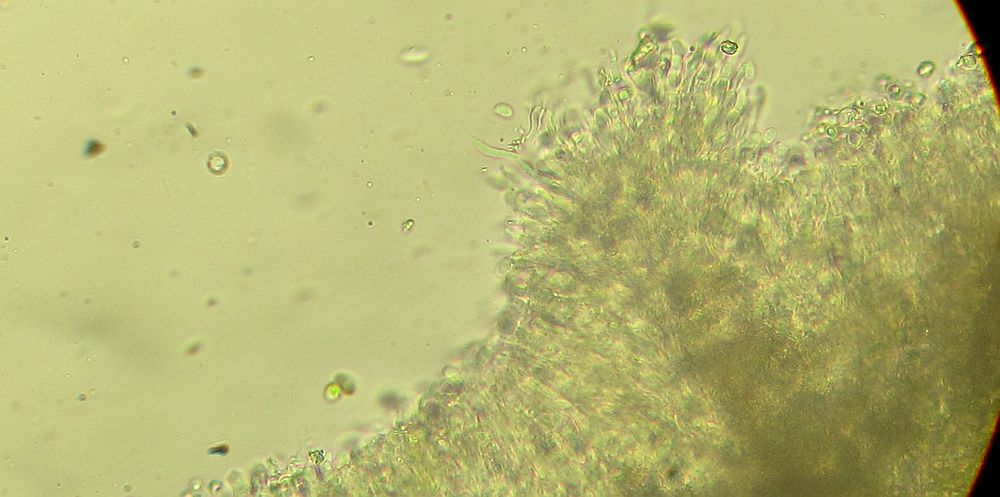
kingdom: Fungi
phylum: Basidiomycota
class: Agaricomycetes
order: Corticiales
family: Corticiaceae
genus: Lyomyces
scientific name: Lyomyces crustosus
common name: vortet hyldehinde
